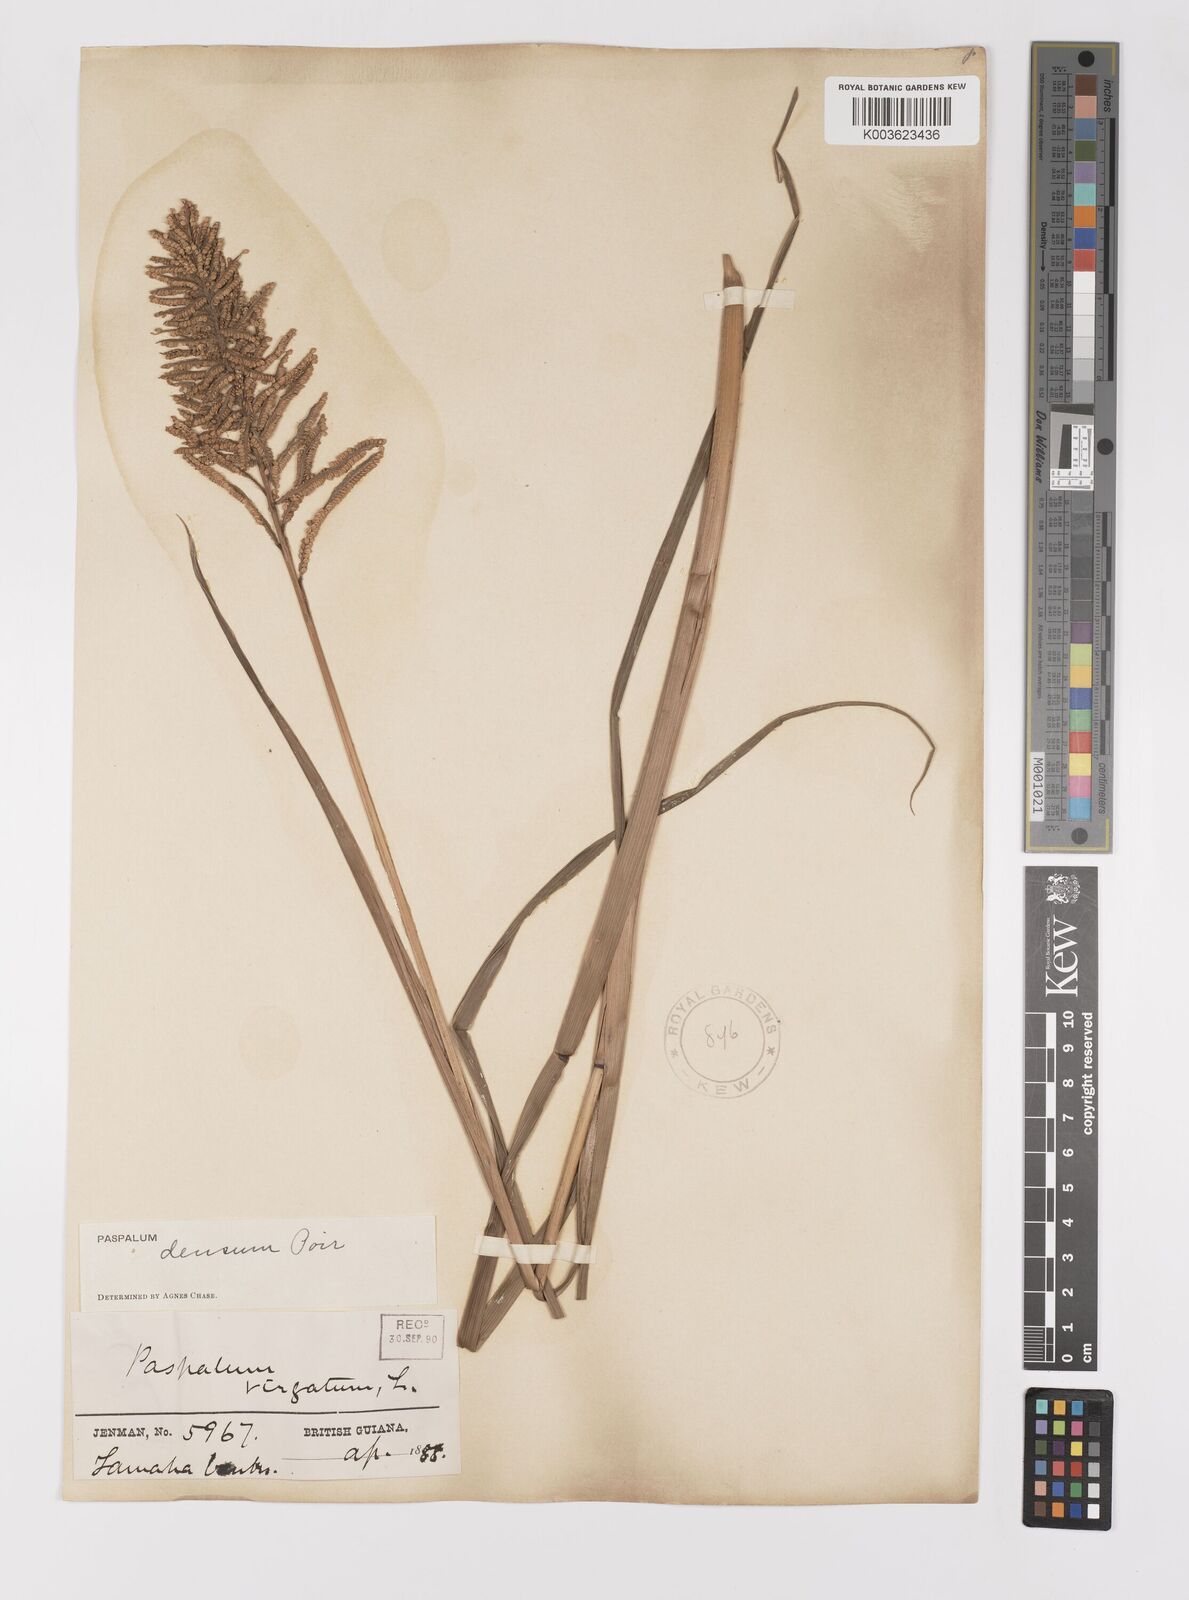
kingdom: Plantae
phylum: Tracheophyta
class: Liliopsida
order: Poales
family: Poaceae
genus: Paspalum
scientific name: Paspalum densum
